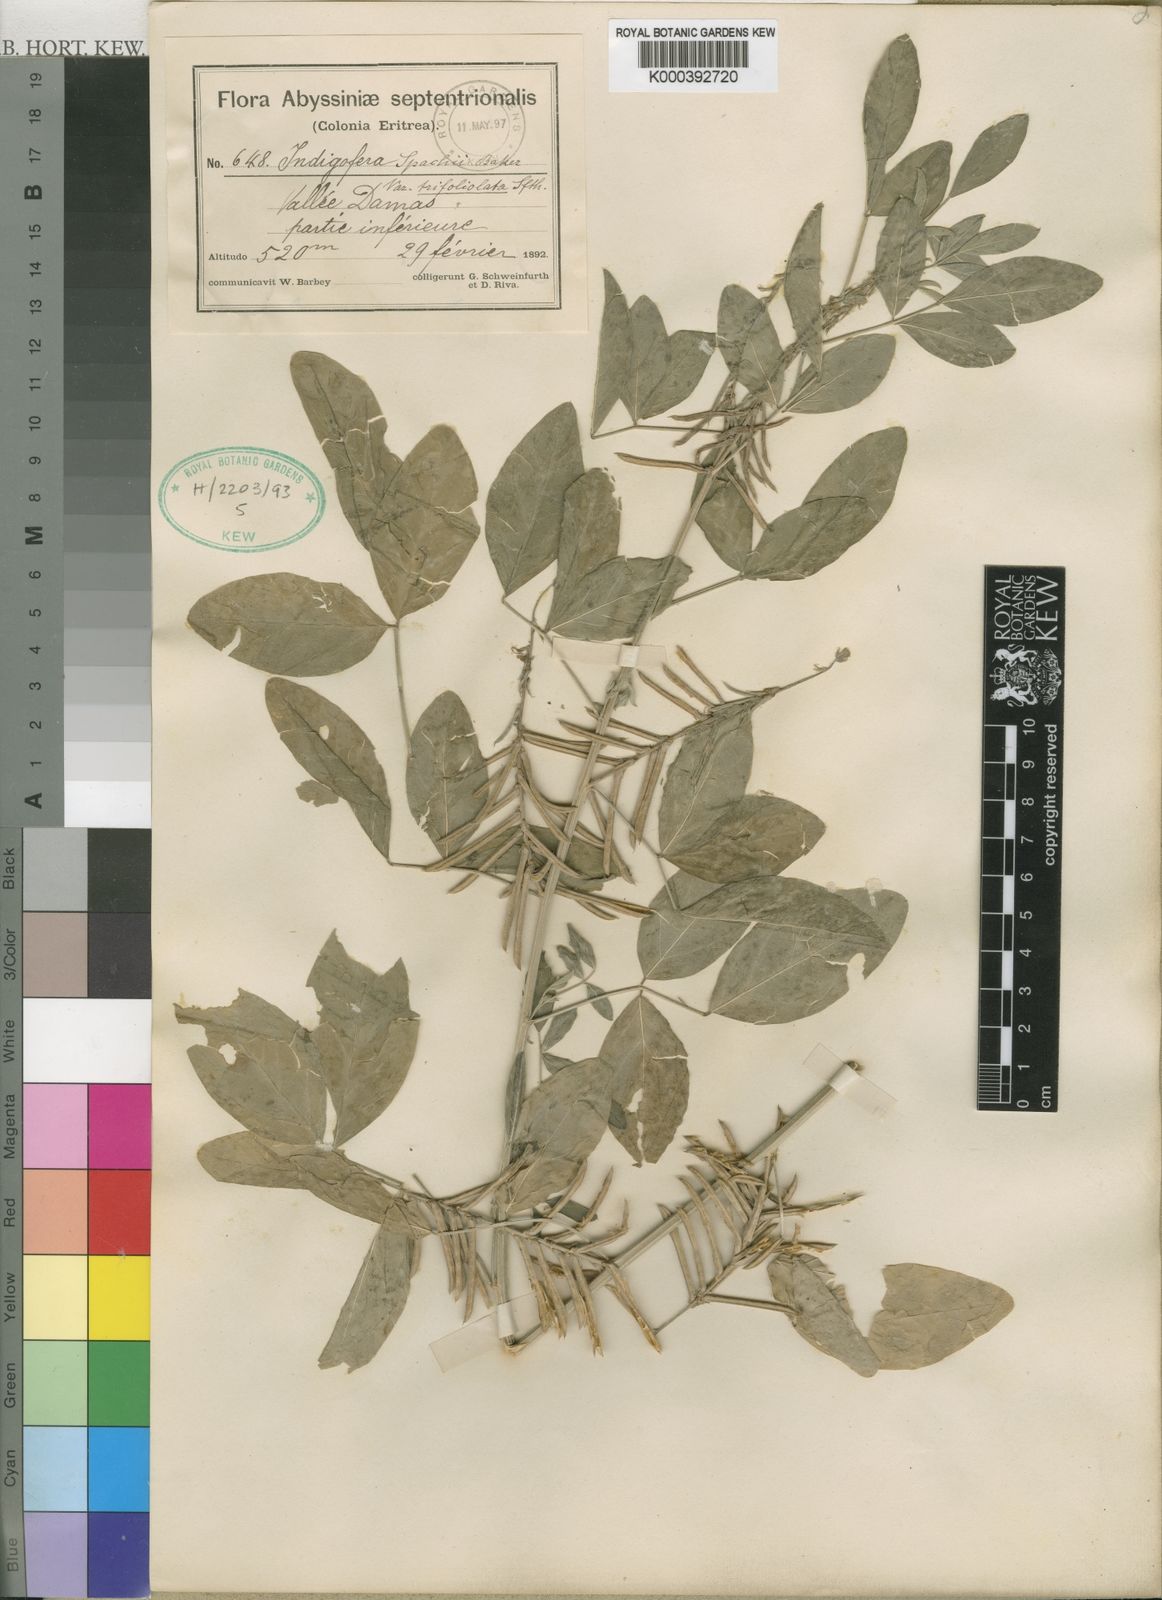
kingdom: Plantae
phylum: Tracheophyta
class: Magnoliopsida
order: Fabales
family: Fabaceae
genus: Indigofera
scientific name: Indigofera trita
